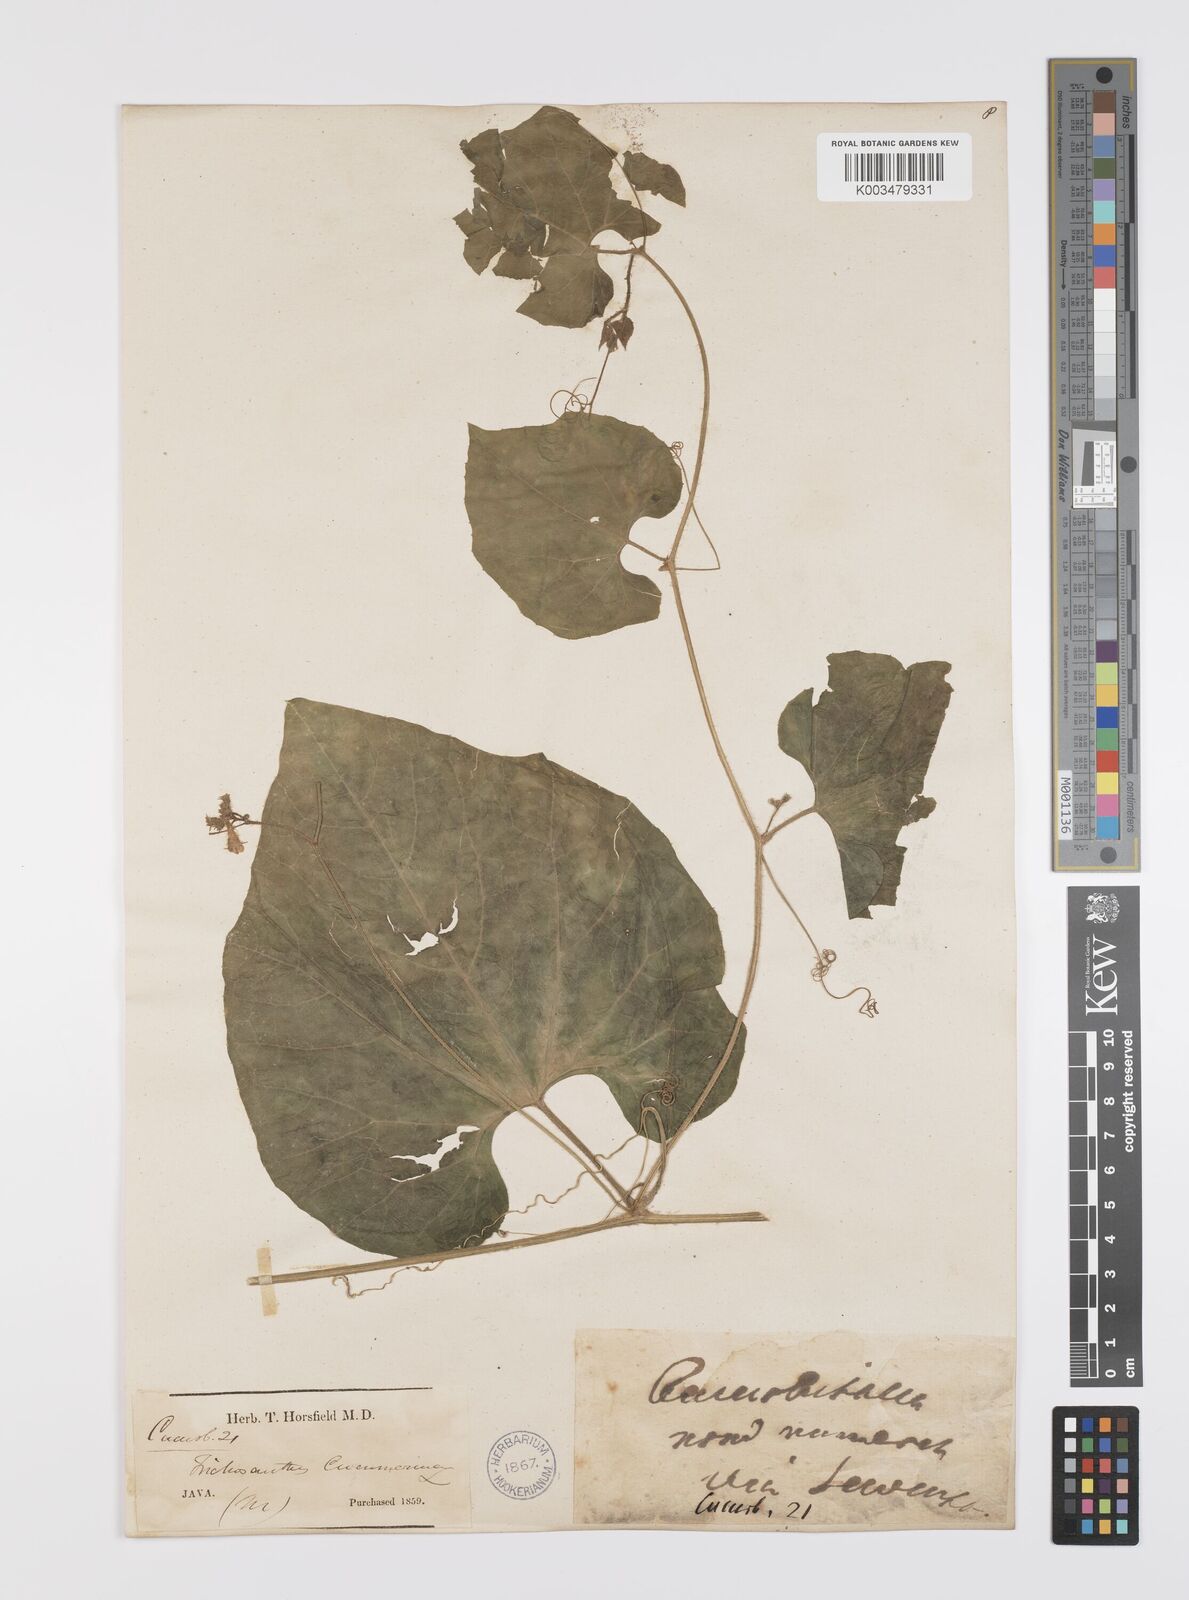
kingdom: Plantae
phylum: Tracheophyta
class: Magnoliopsida
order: Cucurbitales
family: Cucurbitaceae
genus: Trichosanthes
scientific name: Trichosanthes cucumerina
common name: Snakegourd
